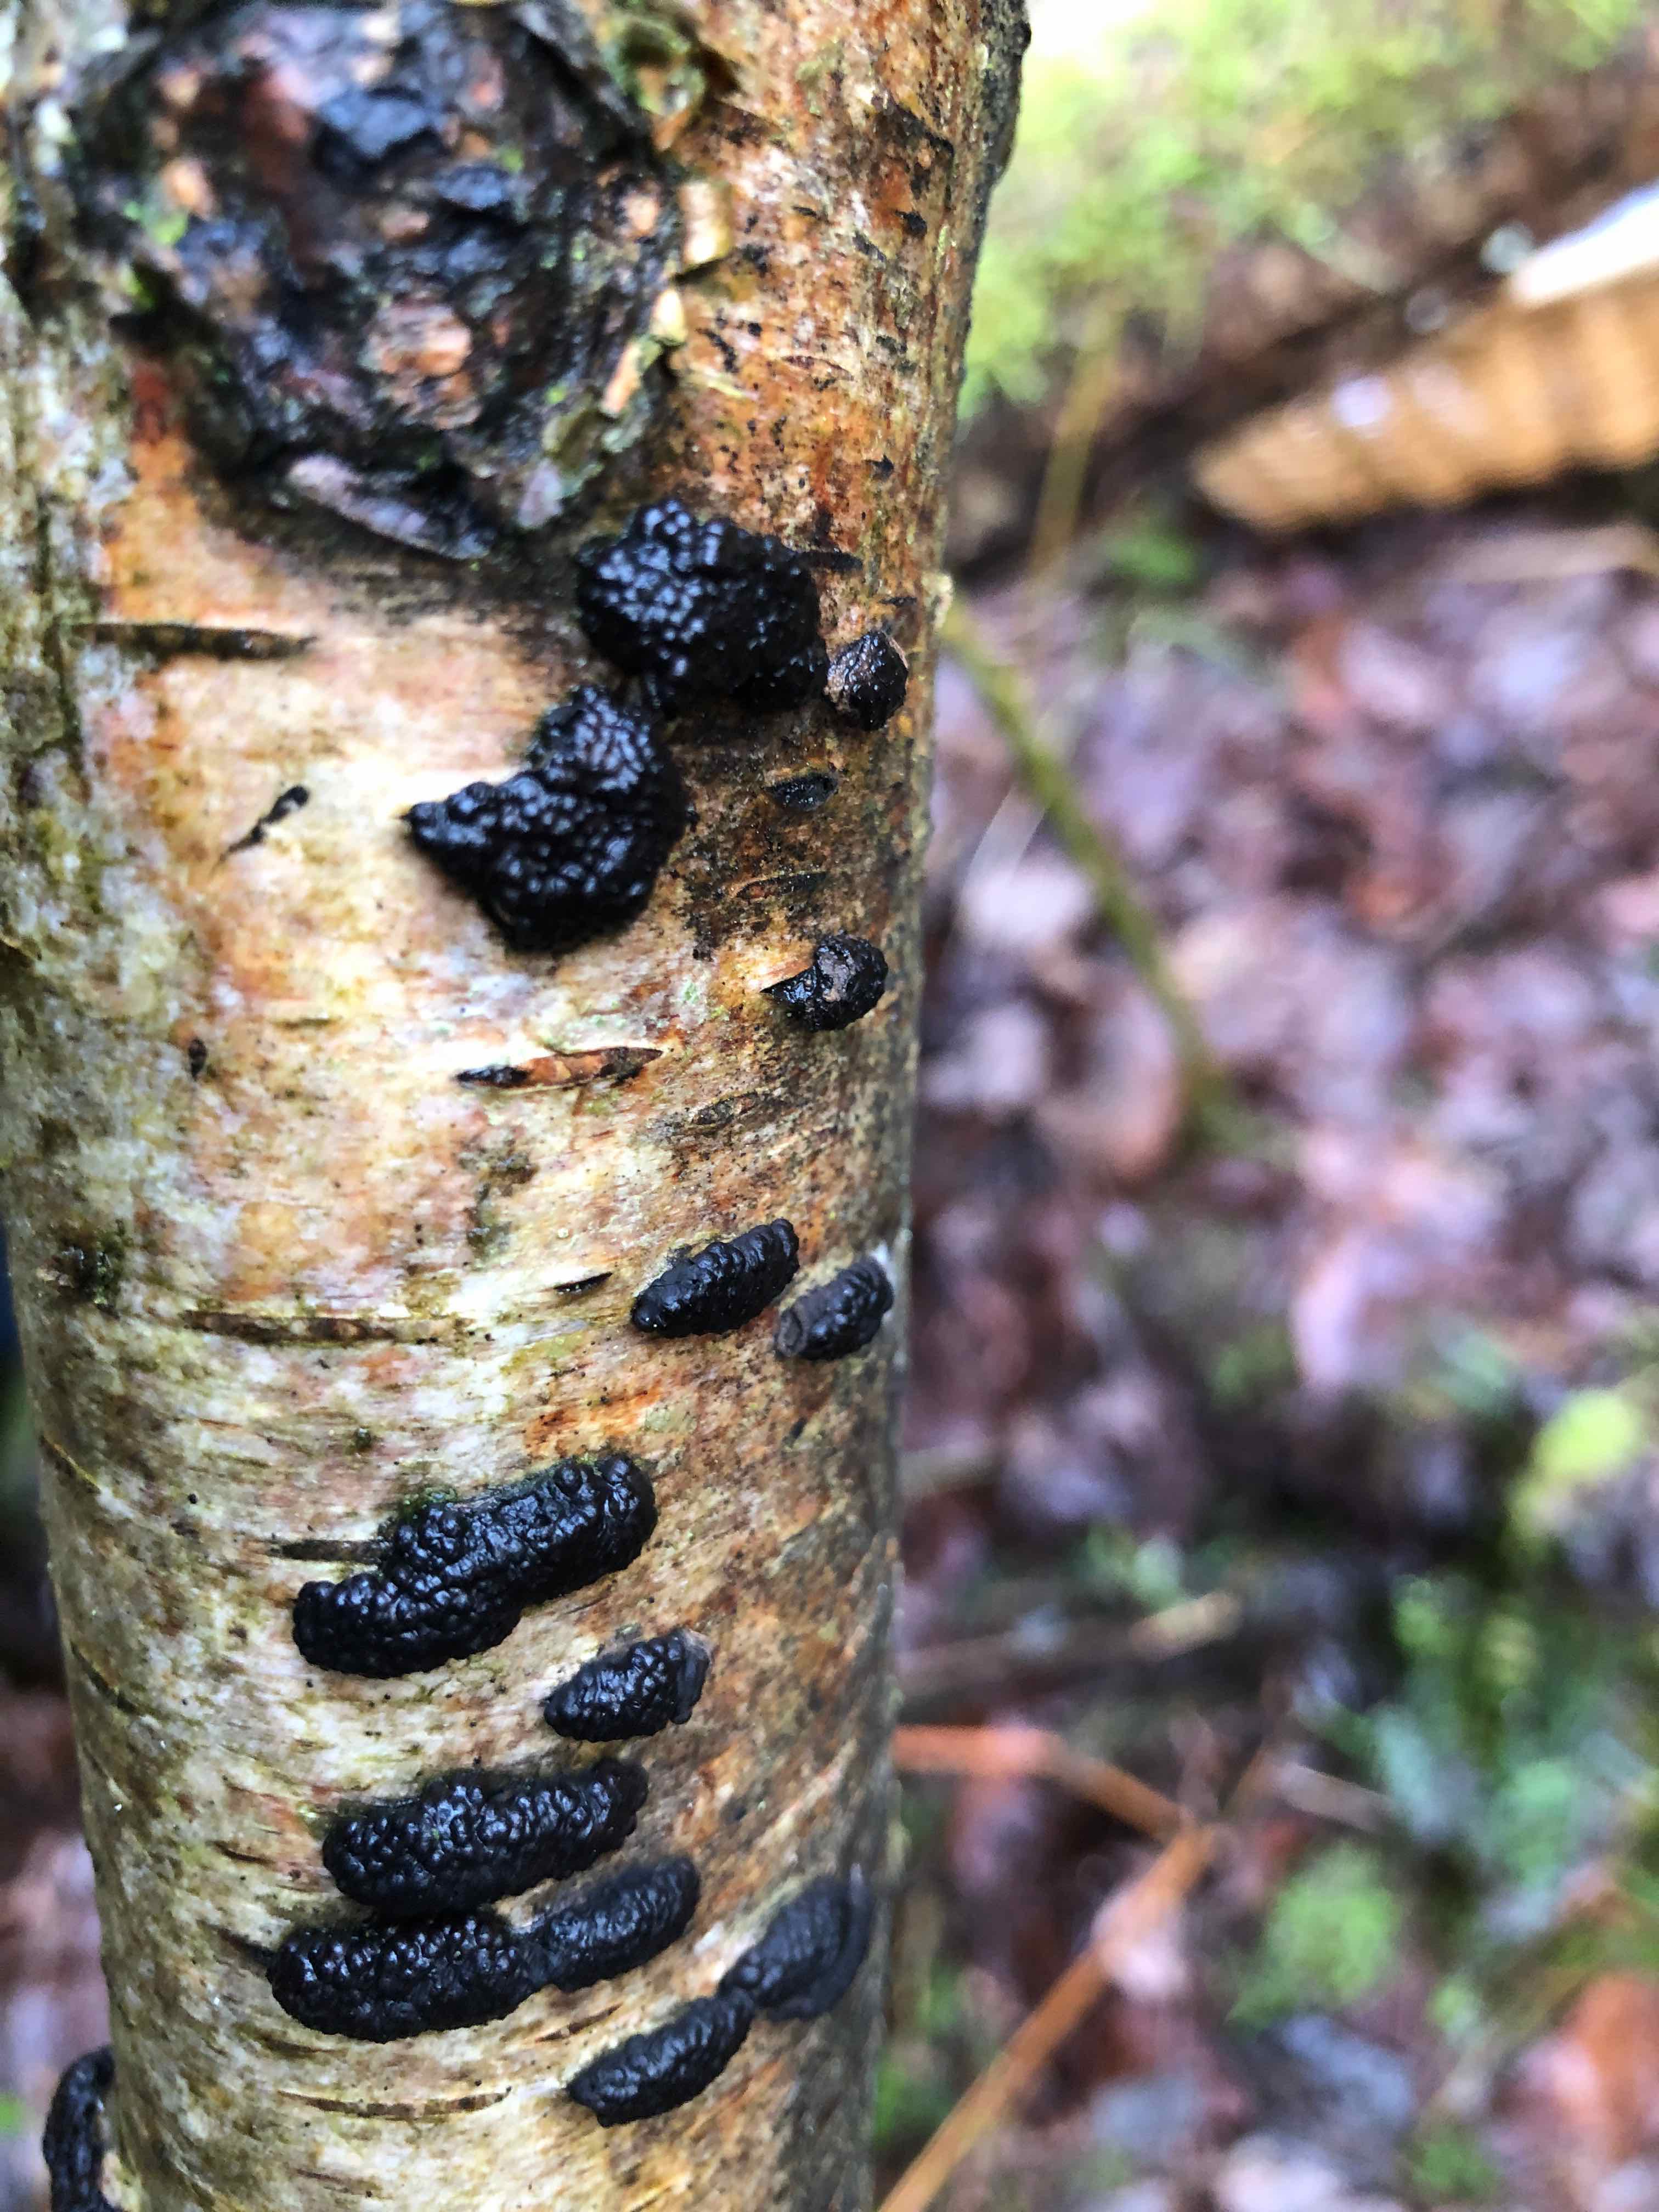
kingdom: Fungi
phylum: Ascomycota
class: Sordariomycetes
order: Xylariales
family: Hypoxylaceae
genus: Jackrogersella
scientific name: Jackrogersella multiformis
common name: foranderlig kulbær
